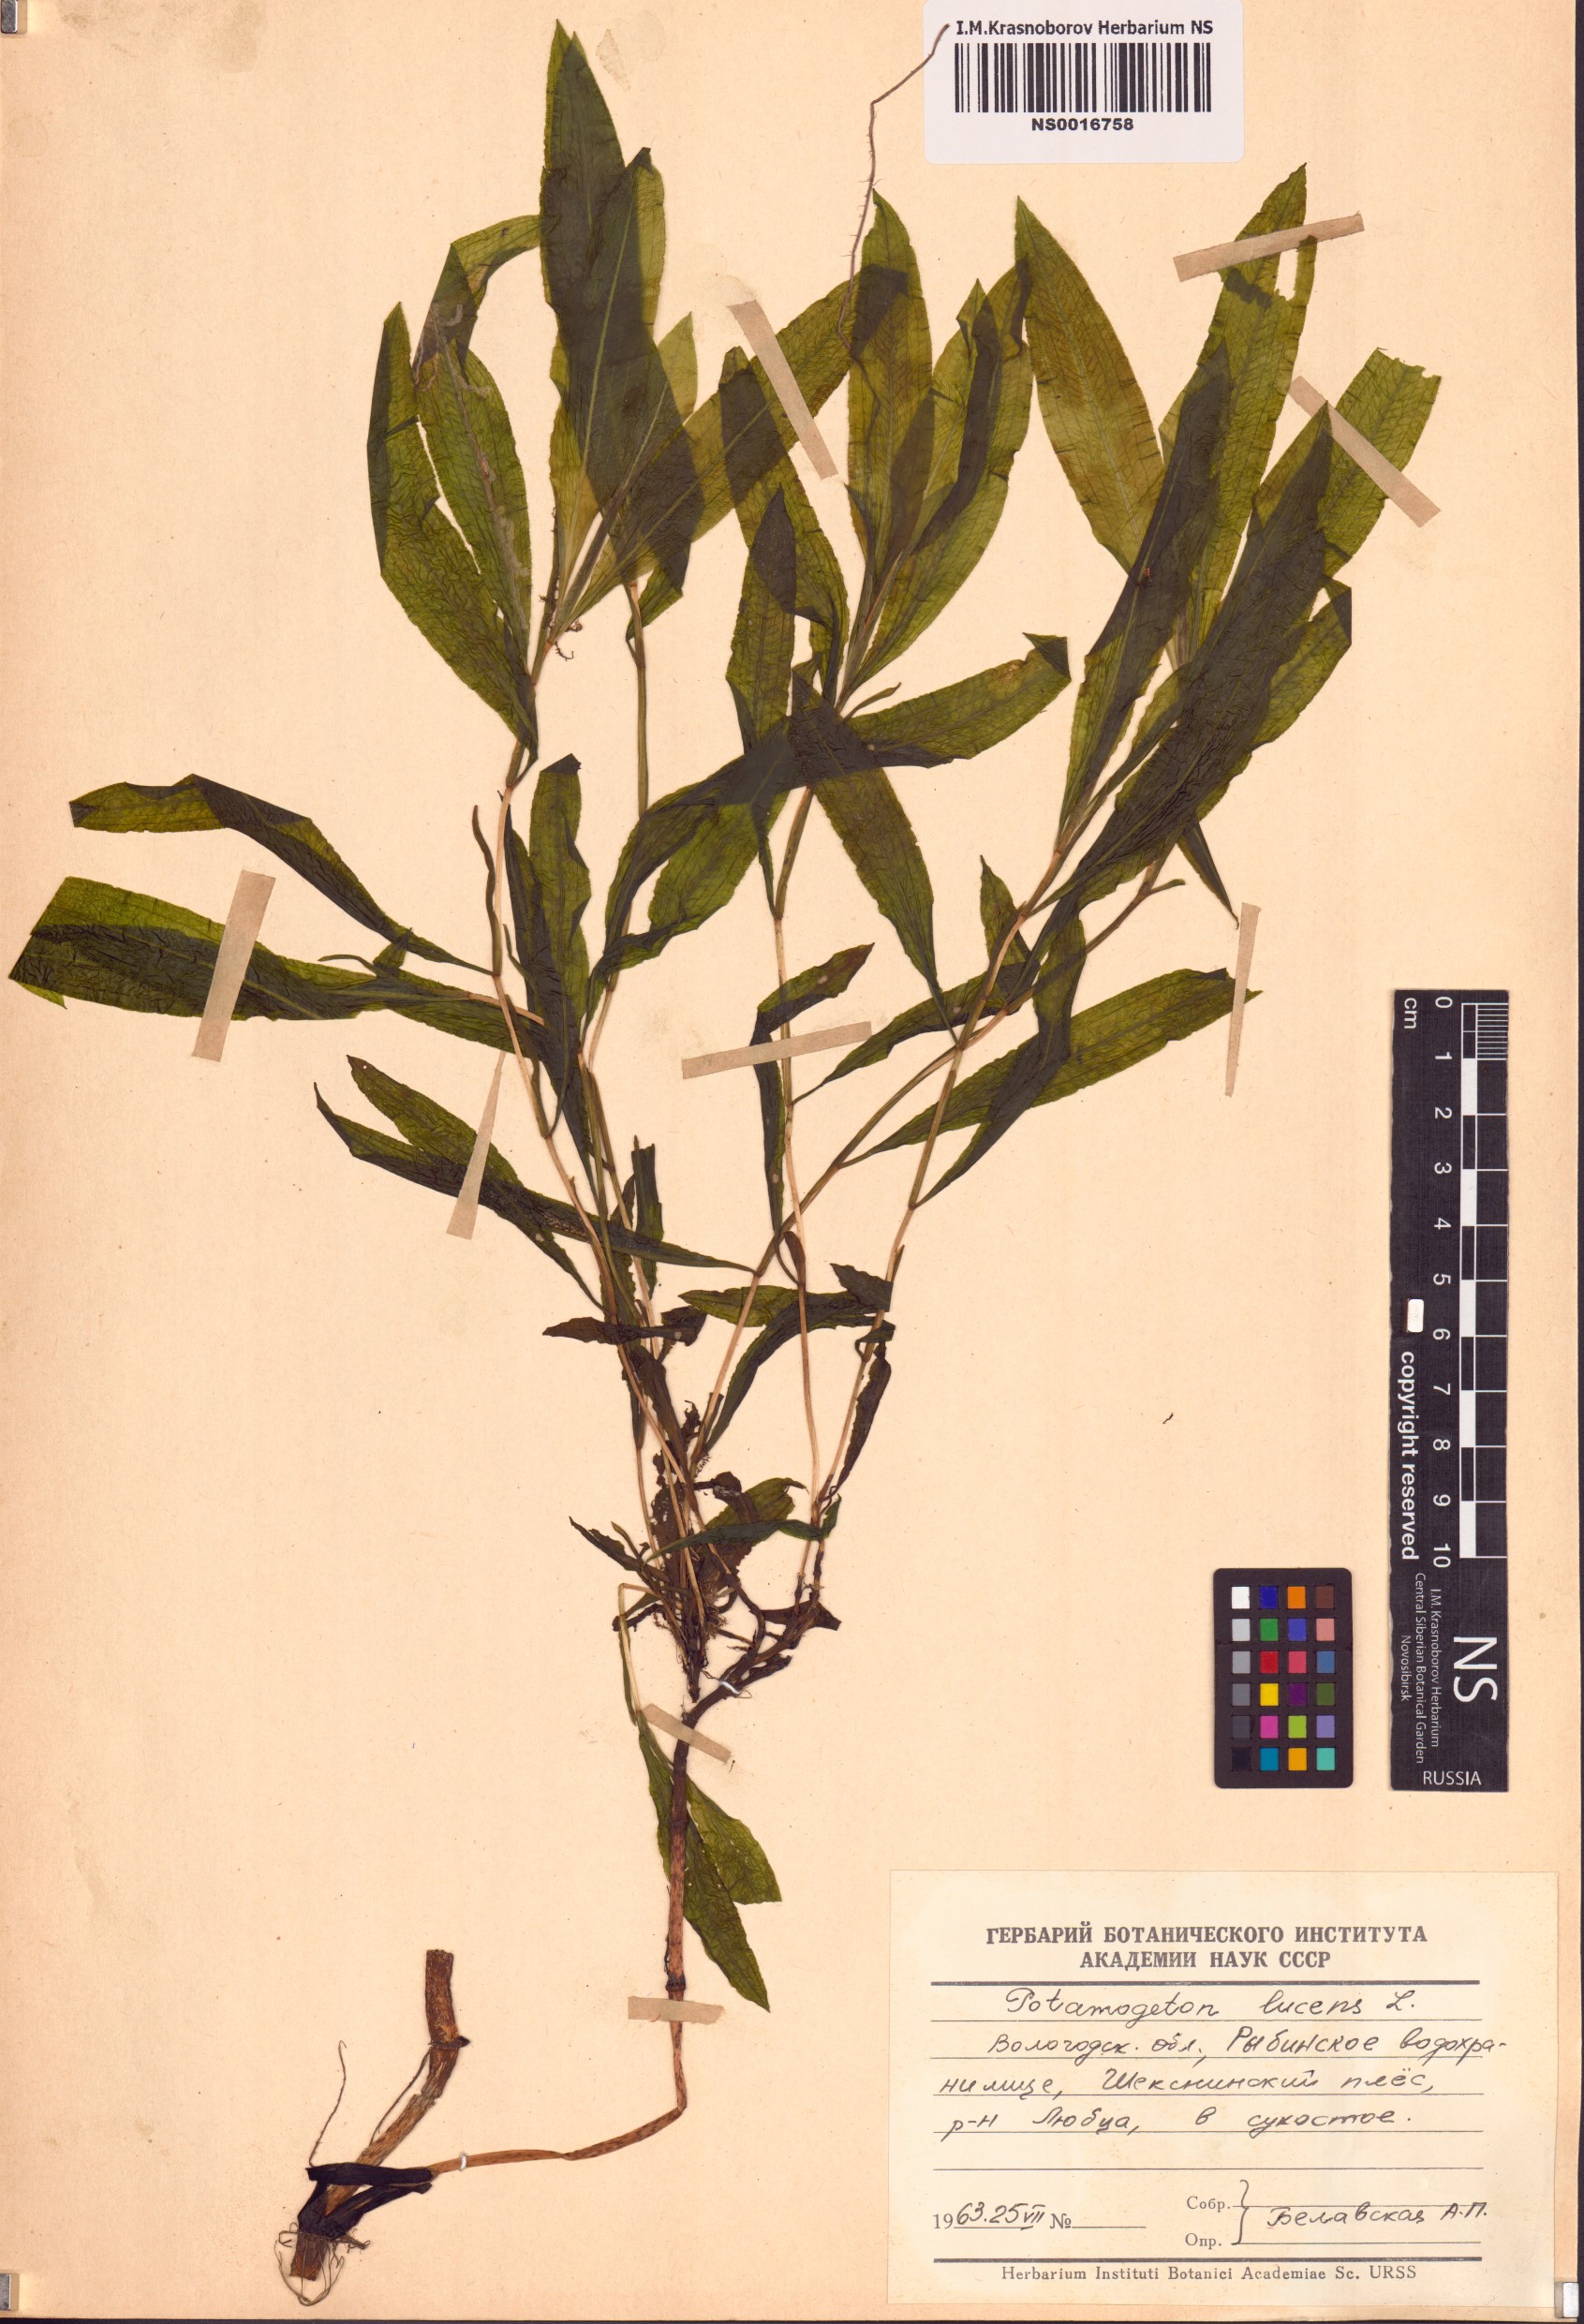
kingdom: Plantae
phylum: Tracheophyta
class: Liliopsida
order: Alismatales
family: Potamogetonaceae
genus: Potamogeton
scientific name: Potamogeton lucens
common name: Shining pondweed
